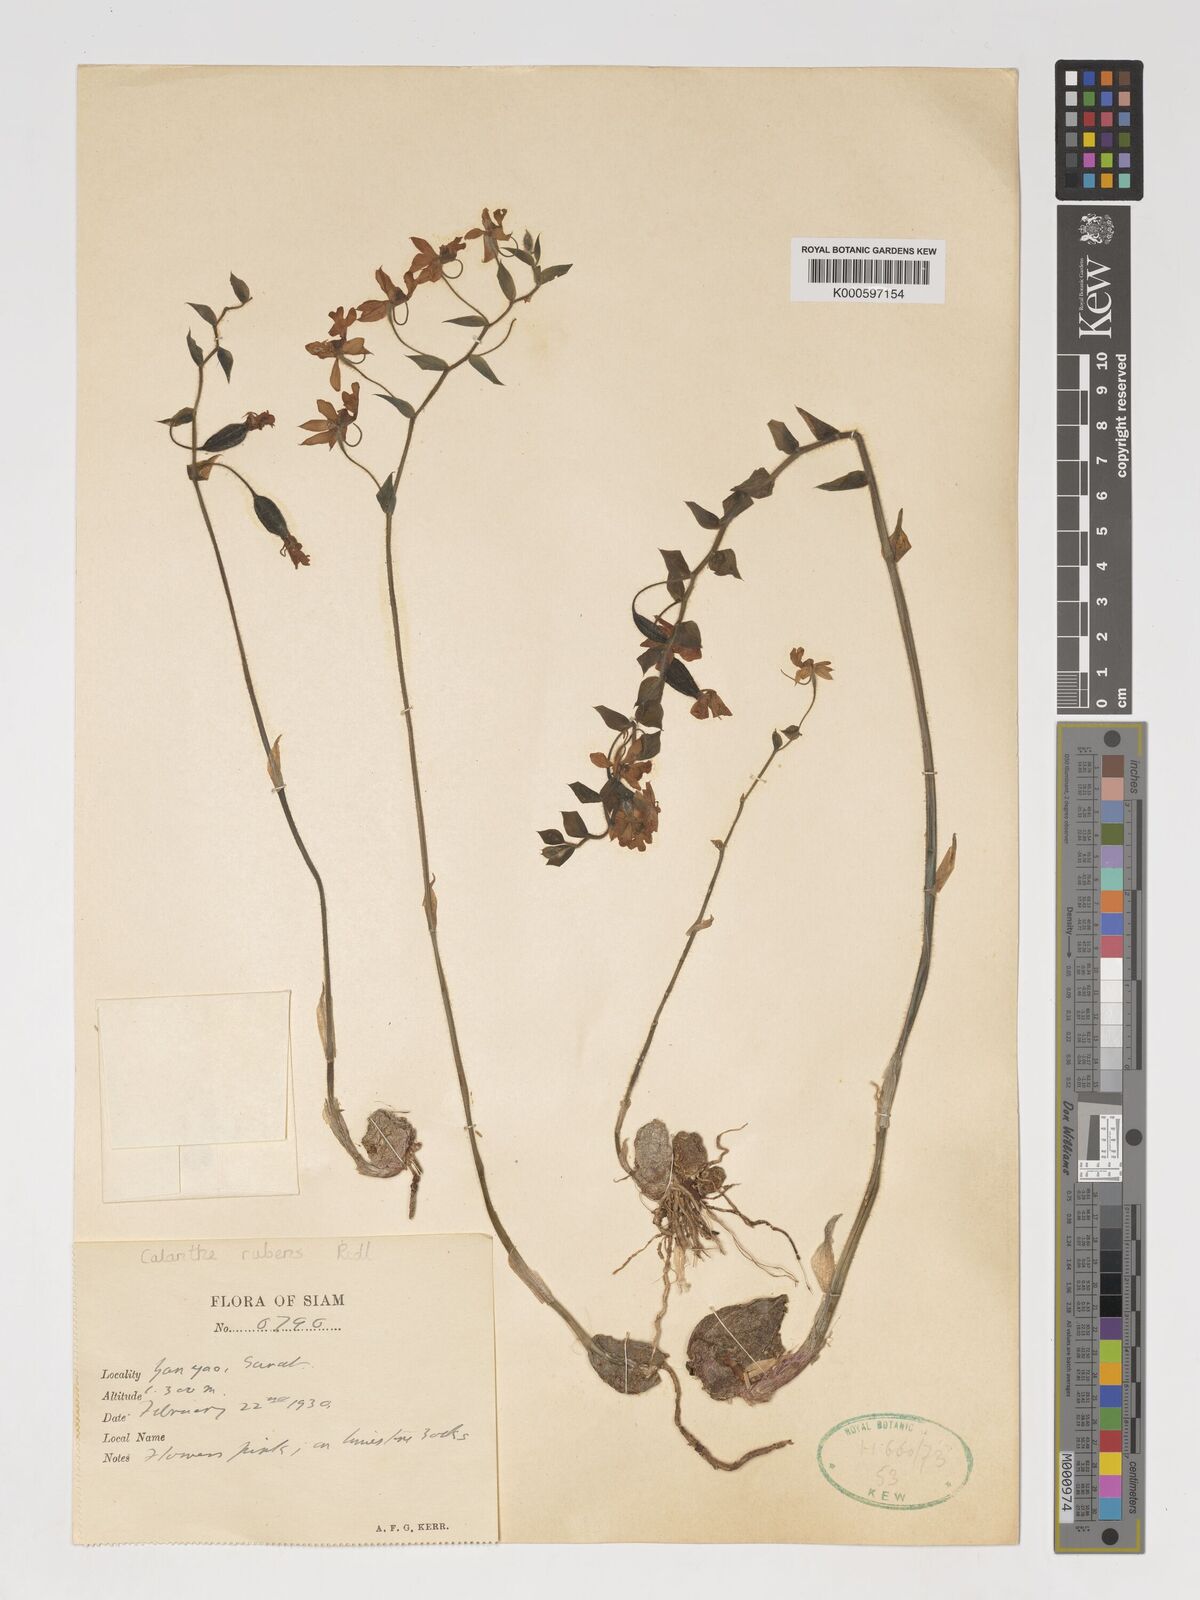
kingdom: Plantae
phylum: Tracheophyta
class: Liliopsida
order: Asparagales
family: Orchidaceae
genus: Calanthe
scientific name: Calanthe rubens
